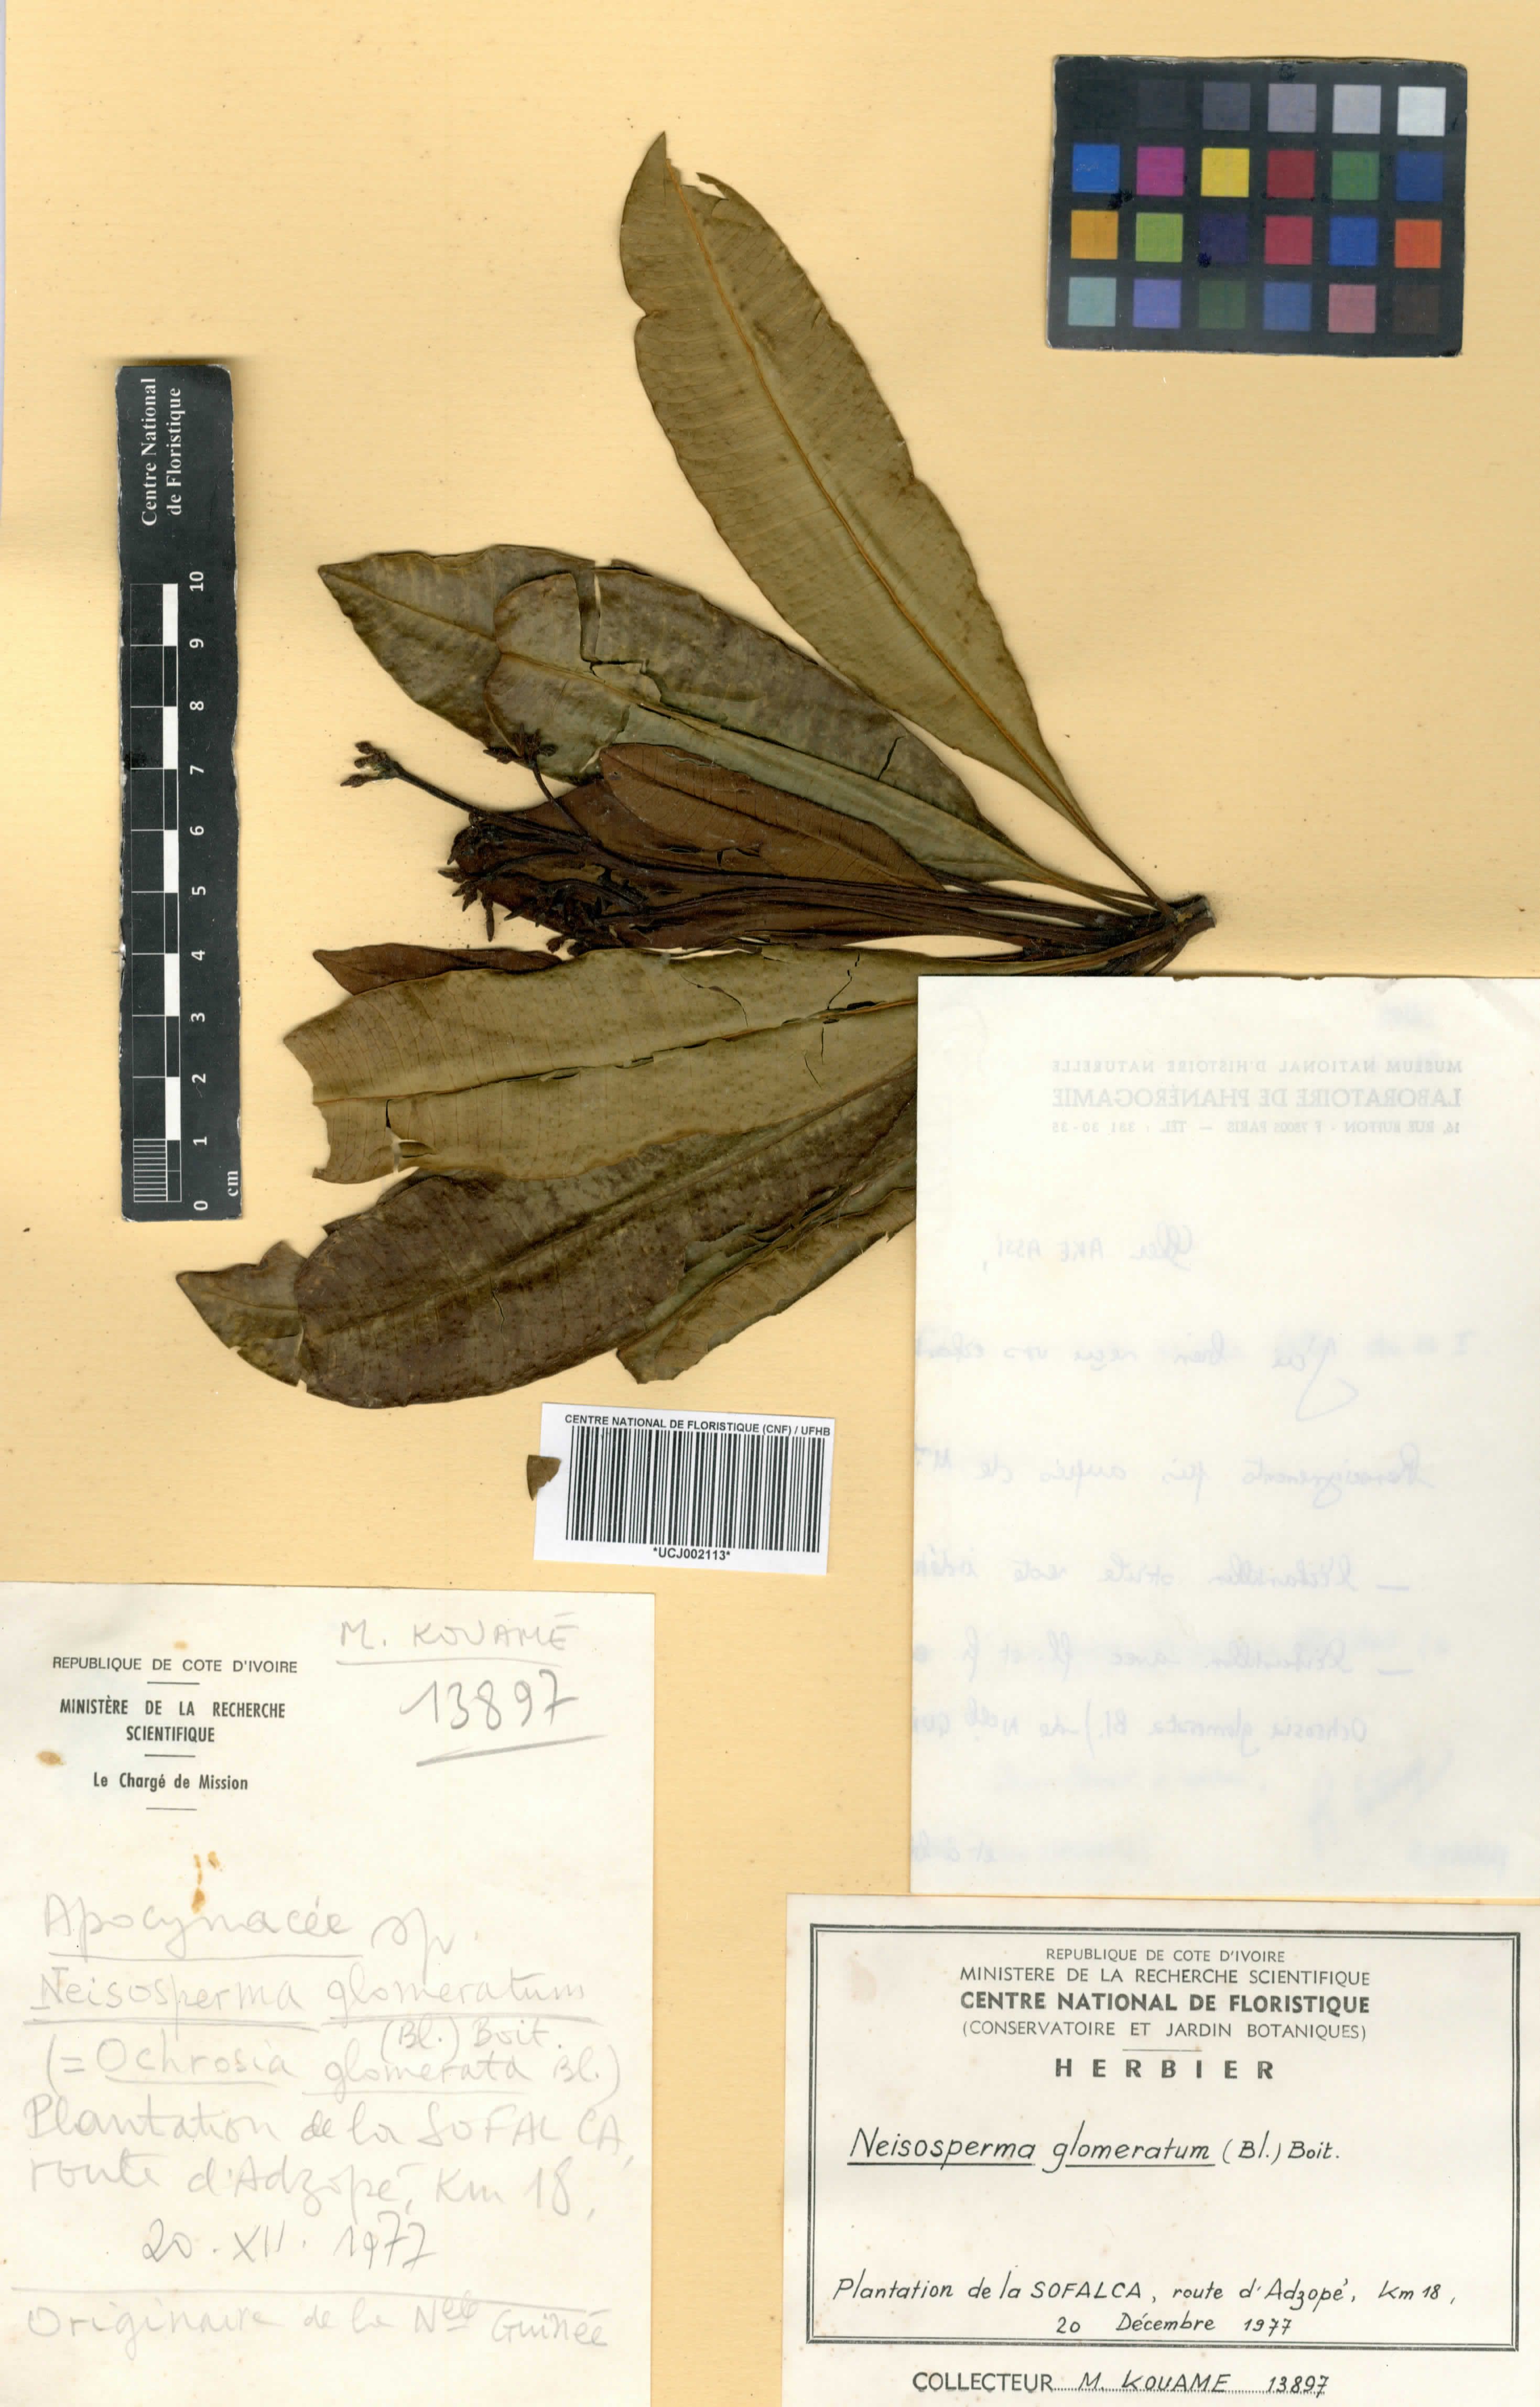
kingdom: Plantae
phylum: Tracheophyta
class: Magnoliopsida
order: Gentianales
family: Apocynaceae
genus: Ochrosia
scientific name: Ochrosia glomerata
